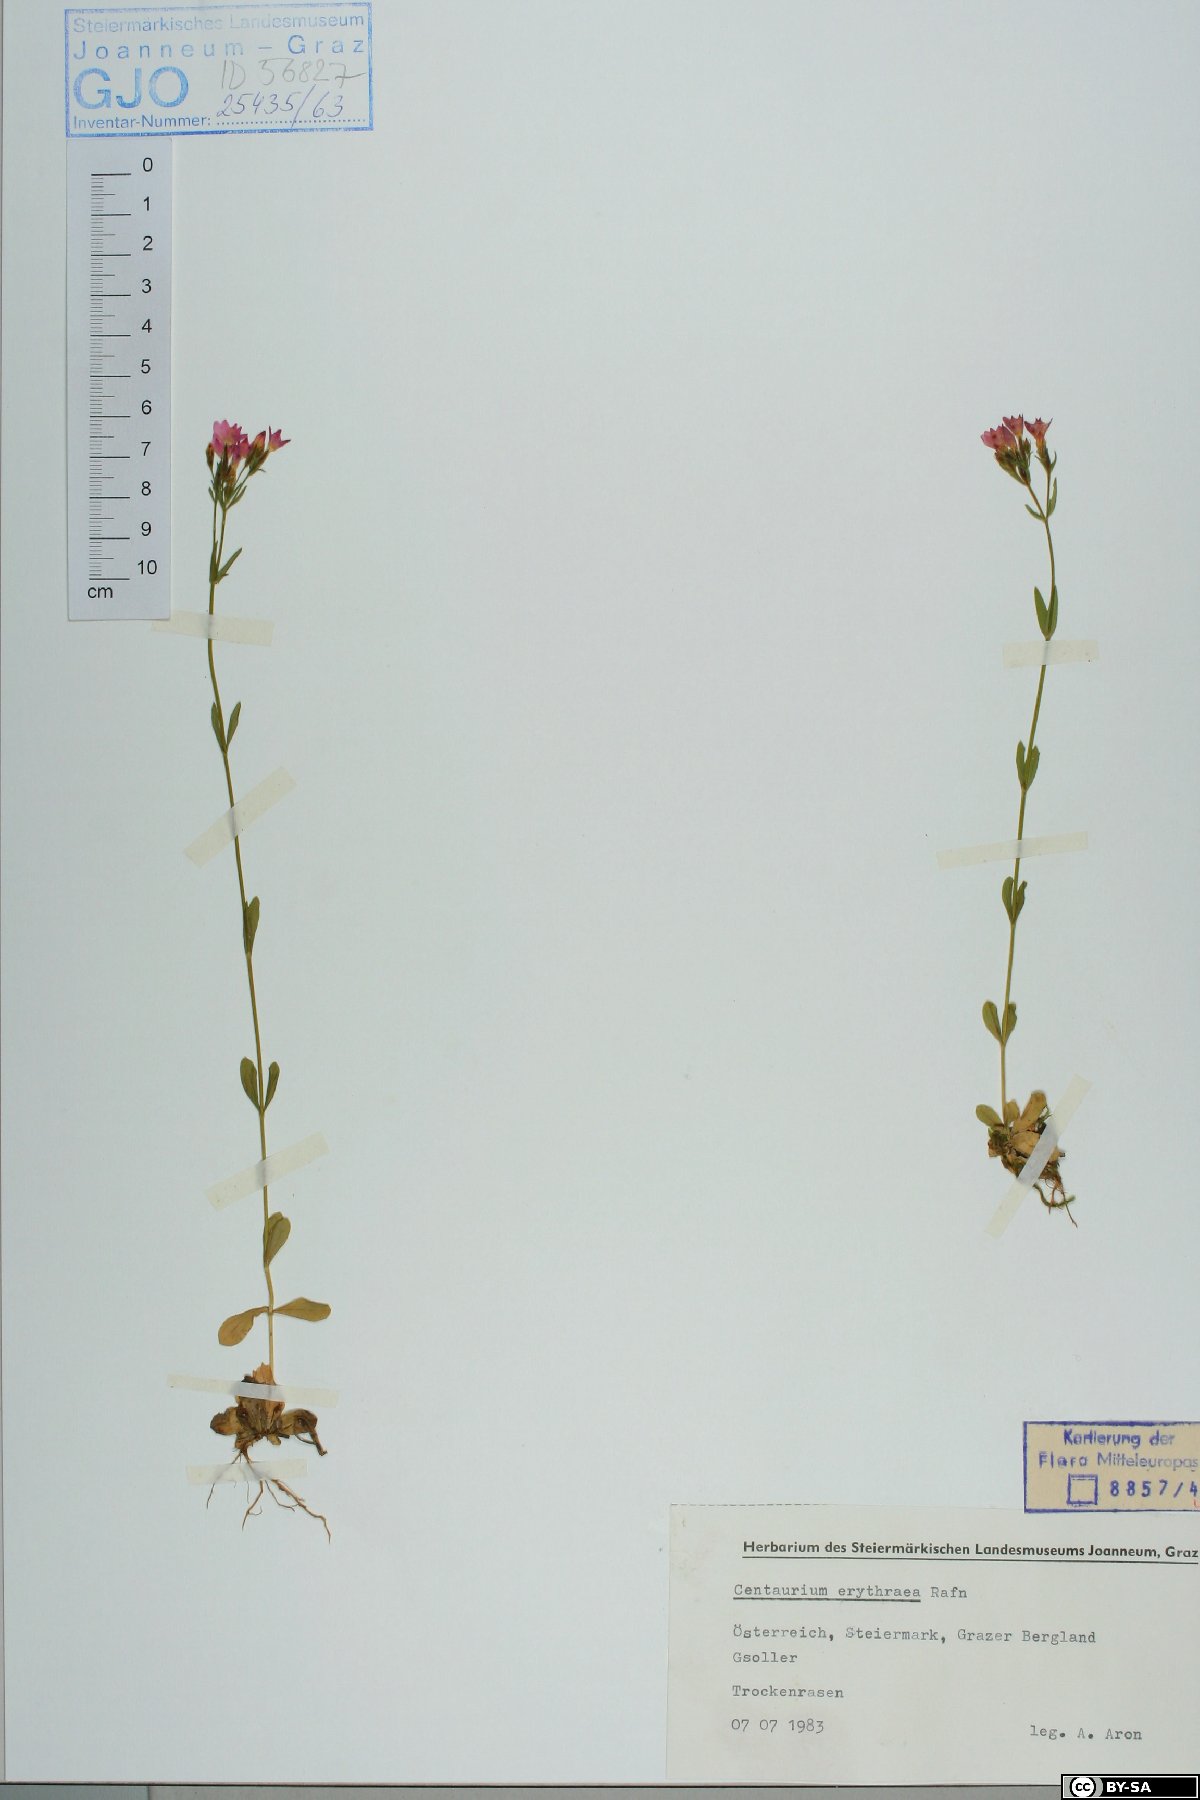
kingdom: Plantae
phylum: Tracheophyta
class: Magnoliopsida
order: Gentianales
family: Gentianaceae
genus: Centaurium
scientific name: Centaurium erythraea
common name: Common centaury
